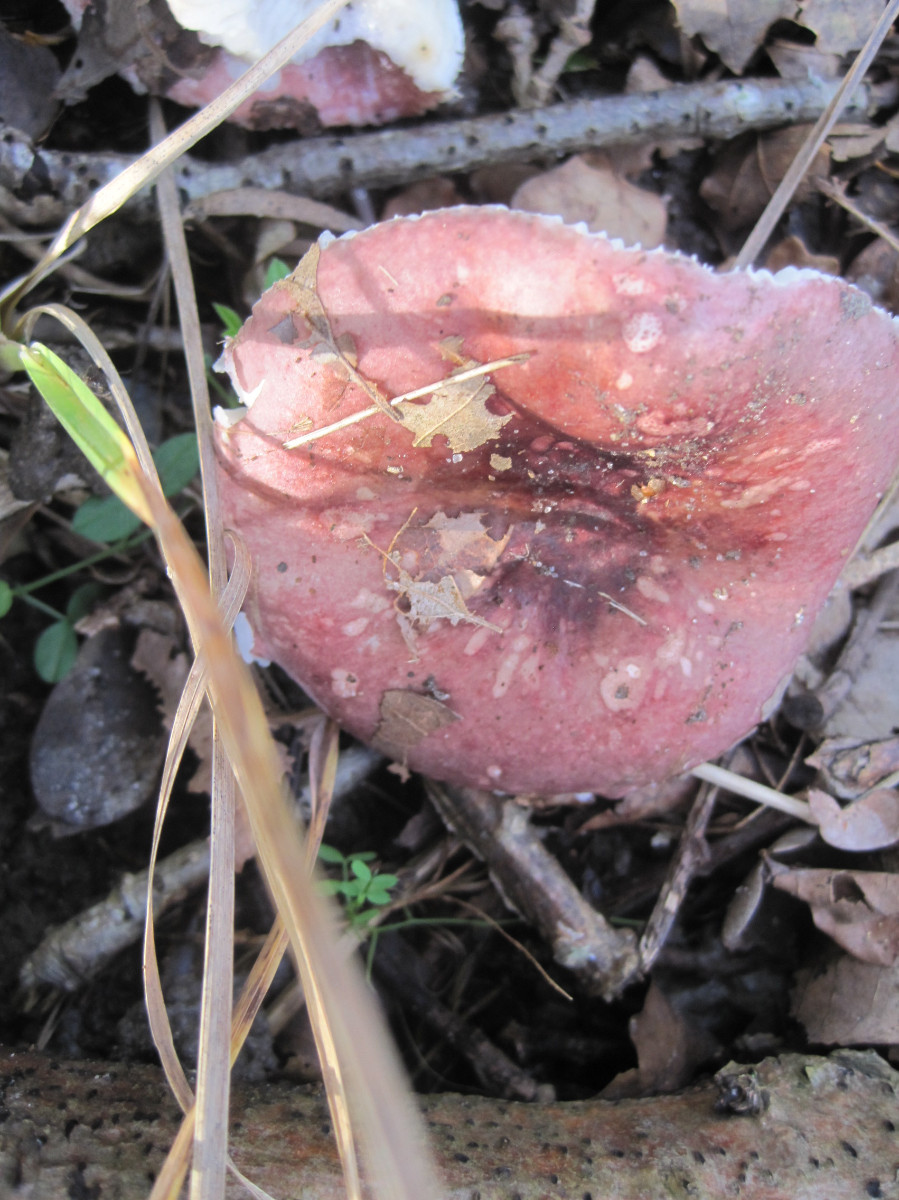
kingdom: Fungi
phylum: Basidiomycota
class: Agaricomycetes
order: Russulales
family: Russulaceae
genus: Russula
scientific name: Russula fragilis
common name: savbladet skørhat
